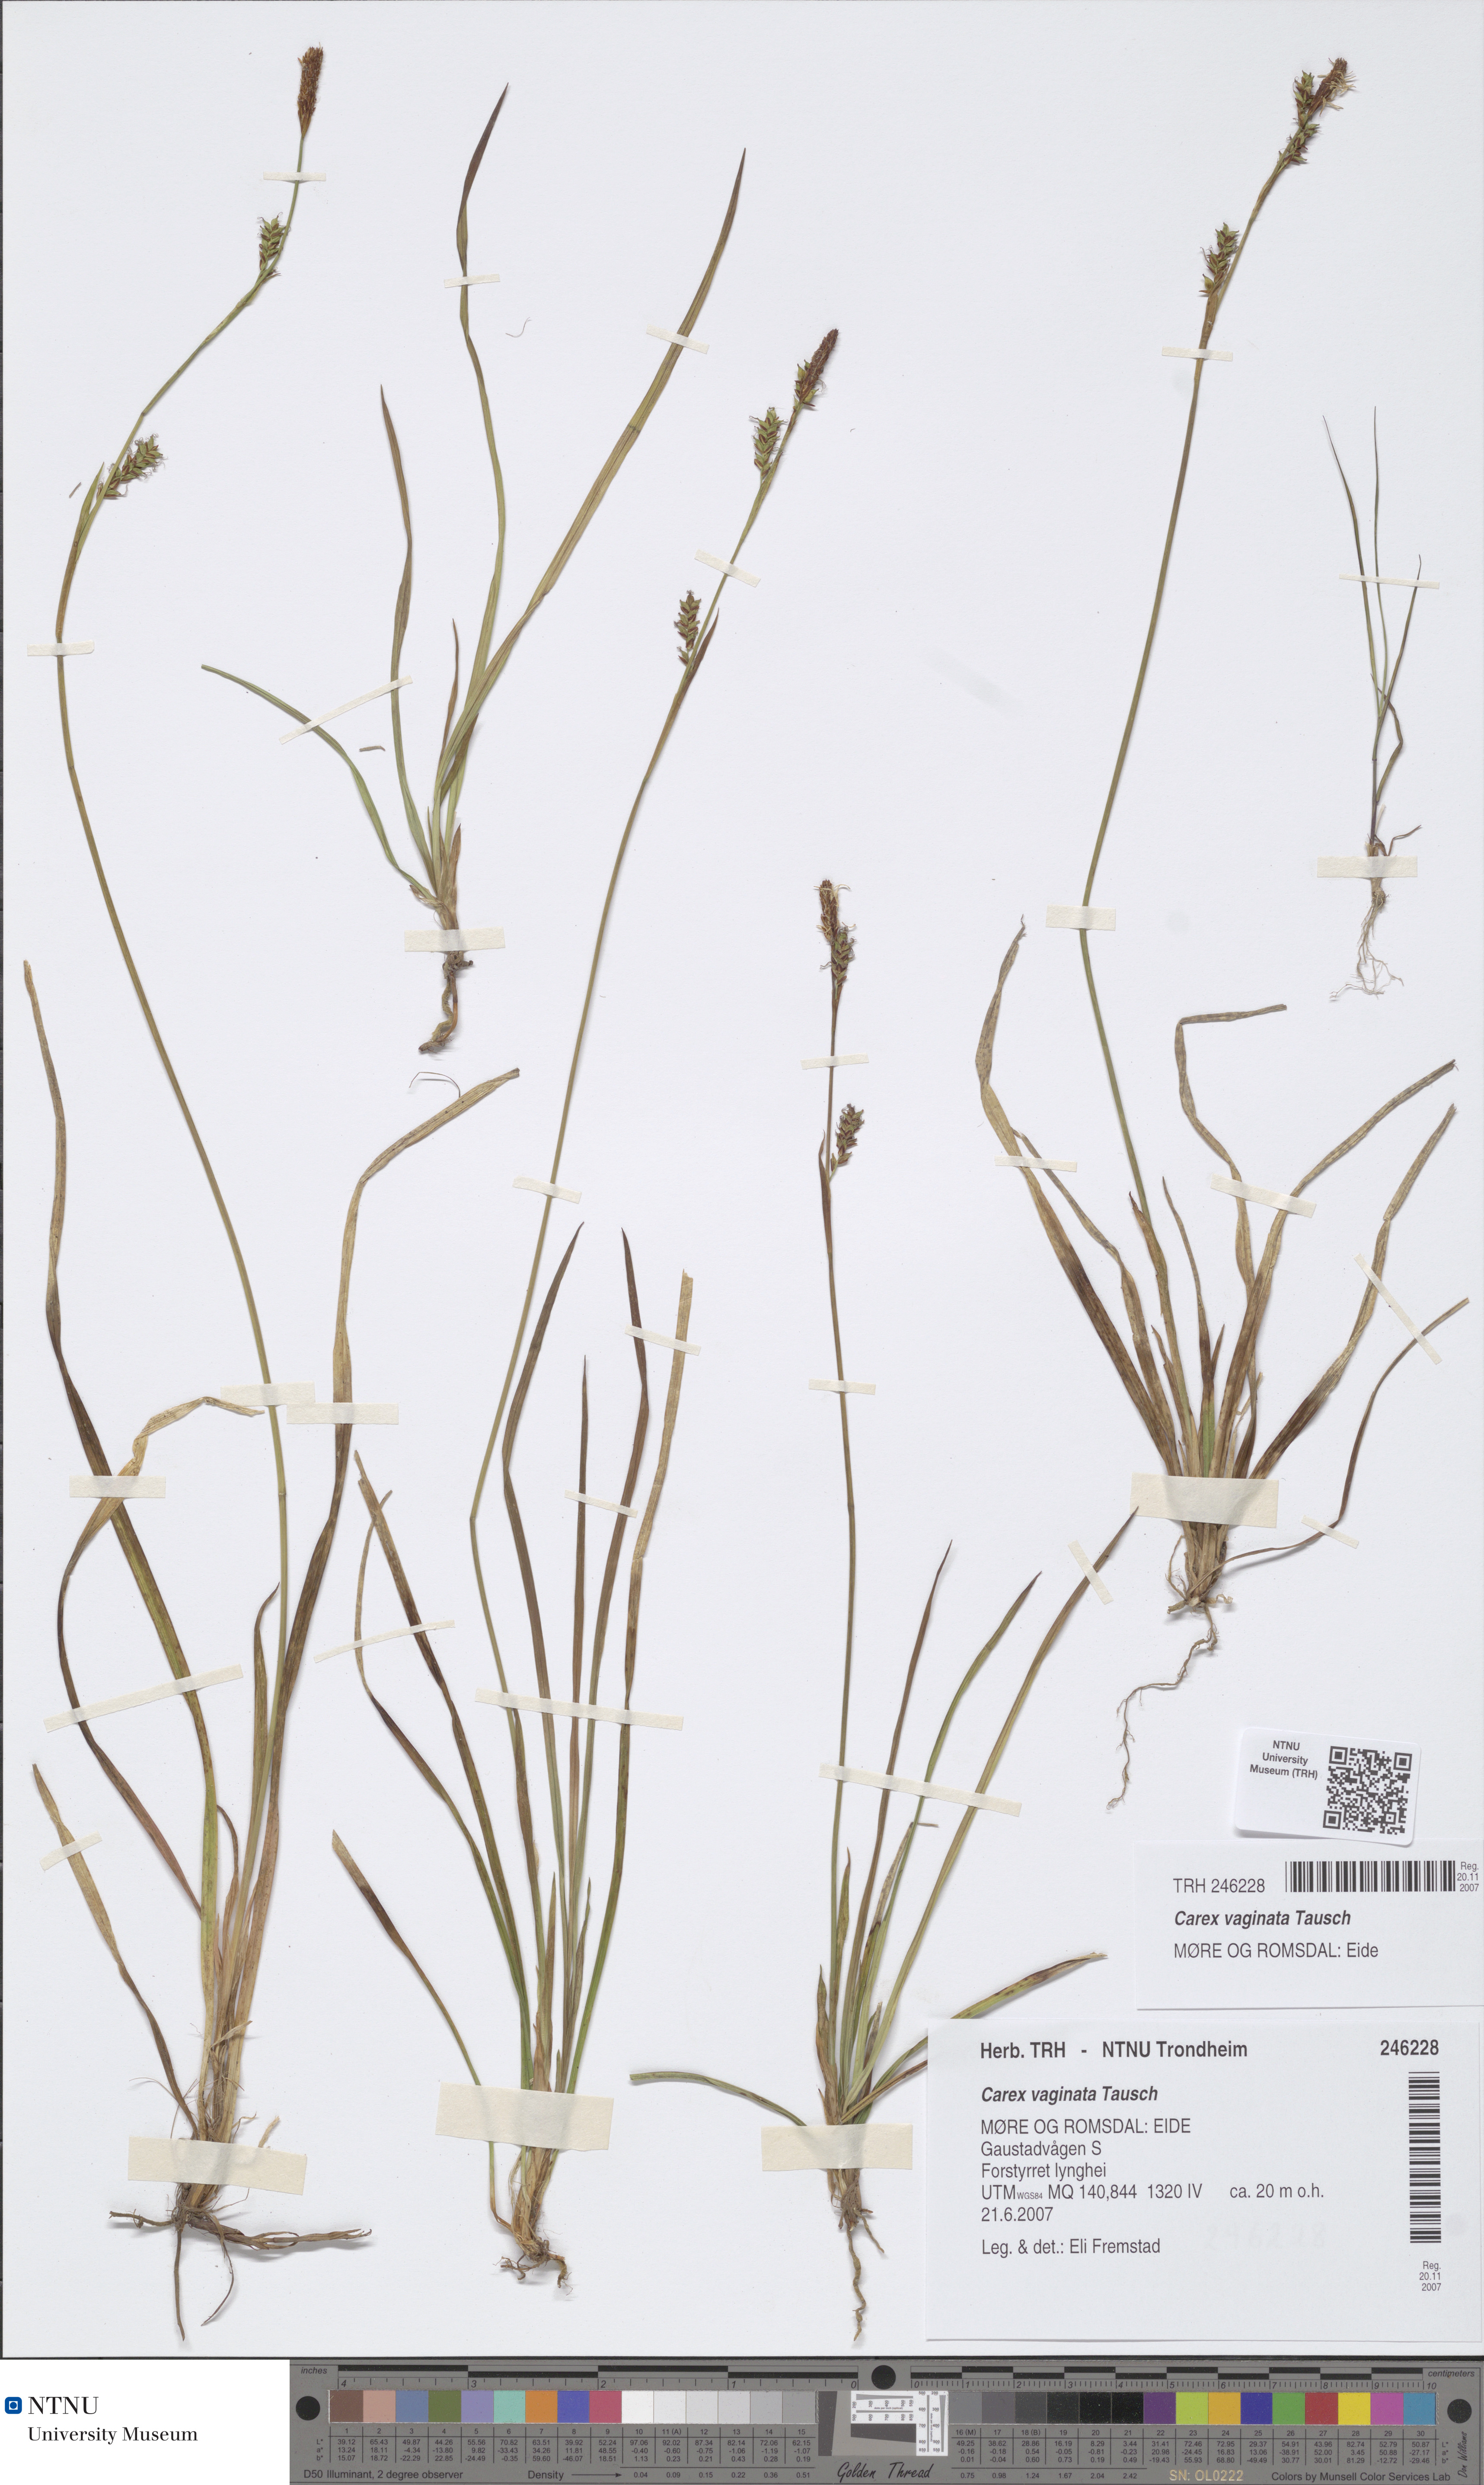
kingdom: Plantae
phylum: Tracheophyta
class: Liliopsida
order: Poales
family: Cyperaceae
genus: Carex
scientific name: Carex vaginata
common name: Sheathed sedge
